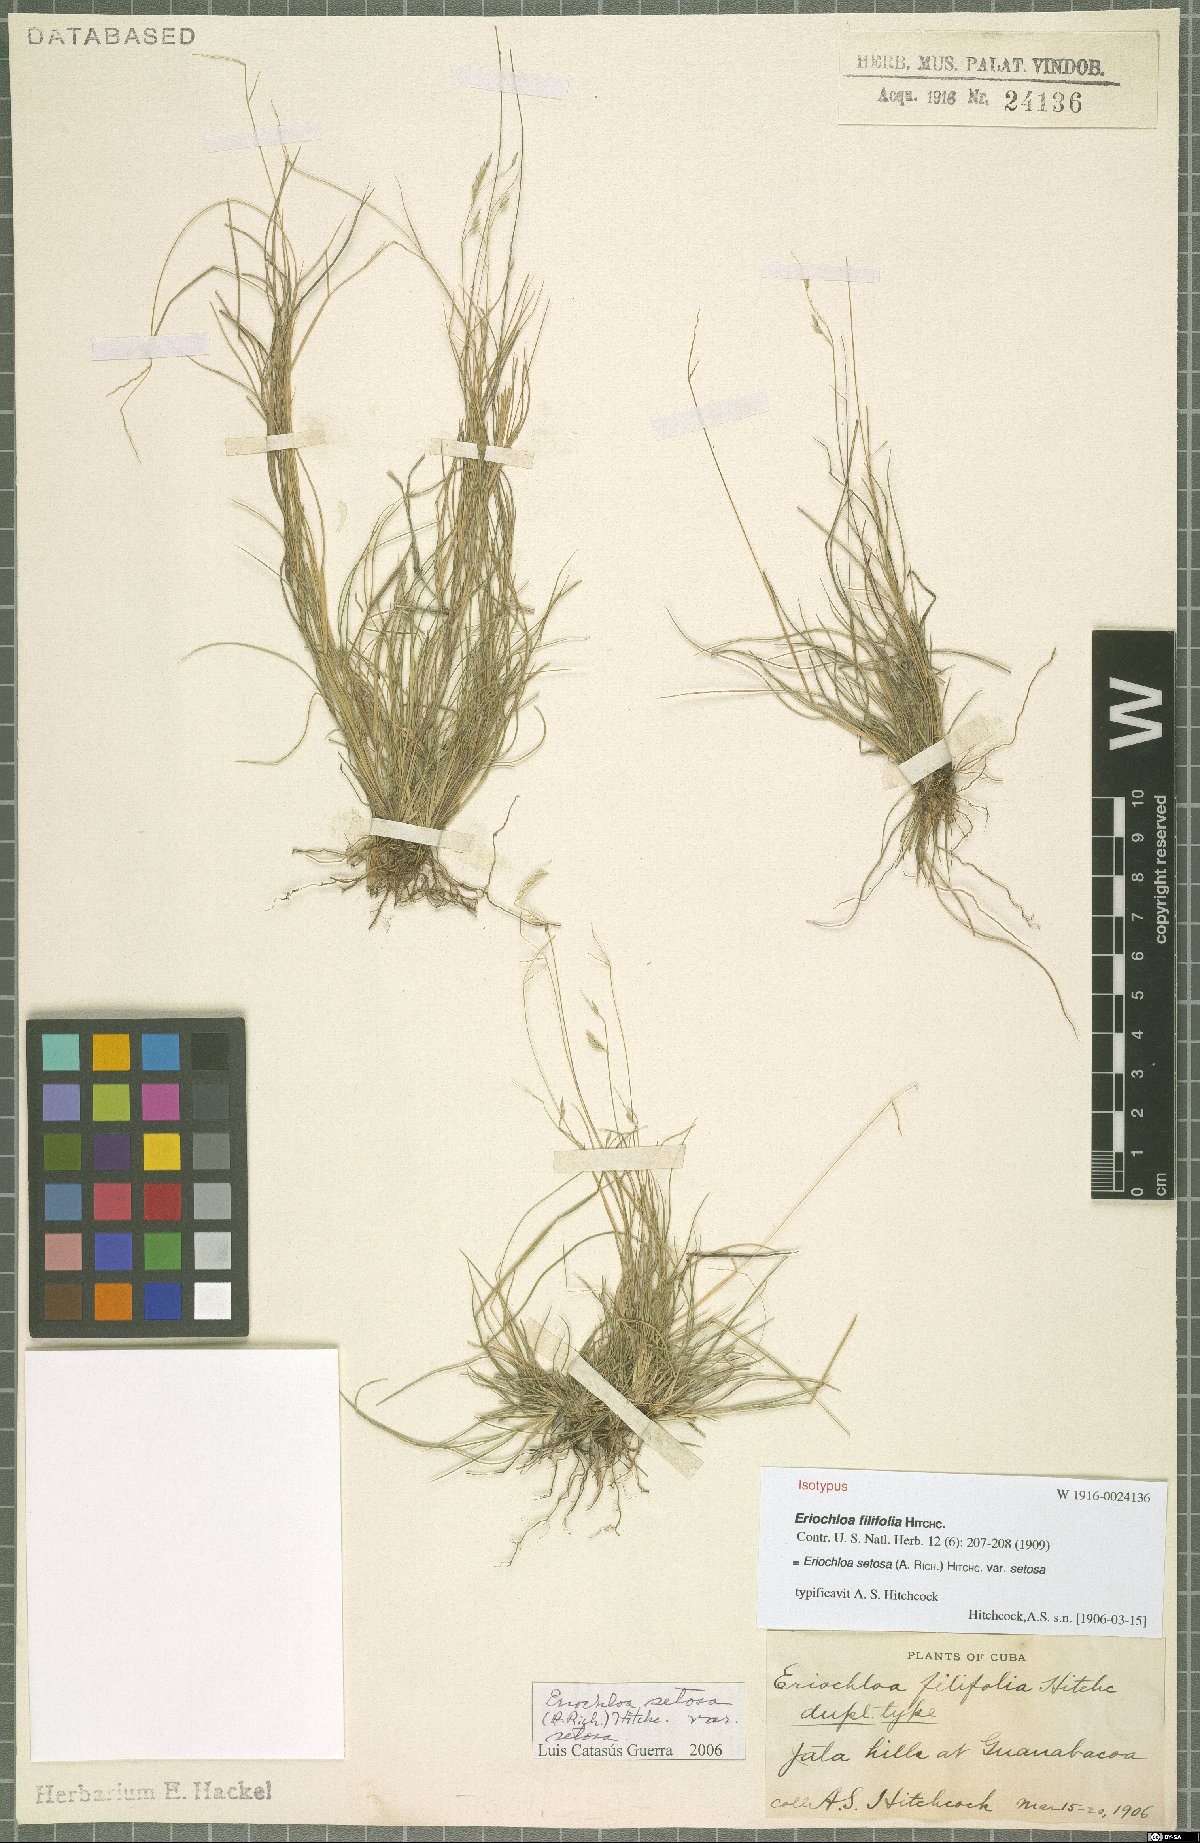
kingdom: Plantae
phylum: Tracheophyta
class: Liliopsida
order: Poales
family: Poaceae
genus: Eriochloa
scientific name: Eriochloa setosa
